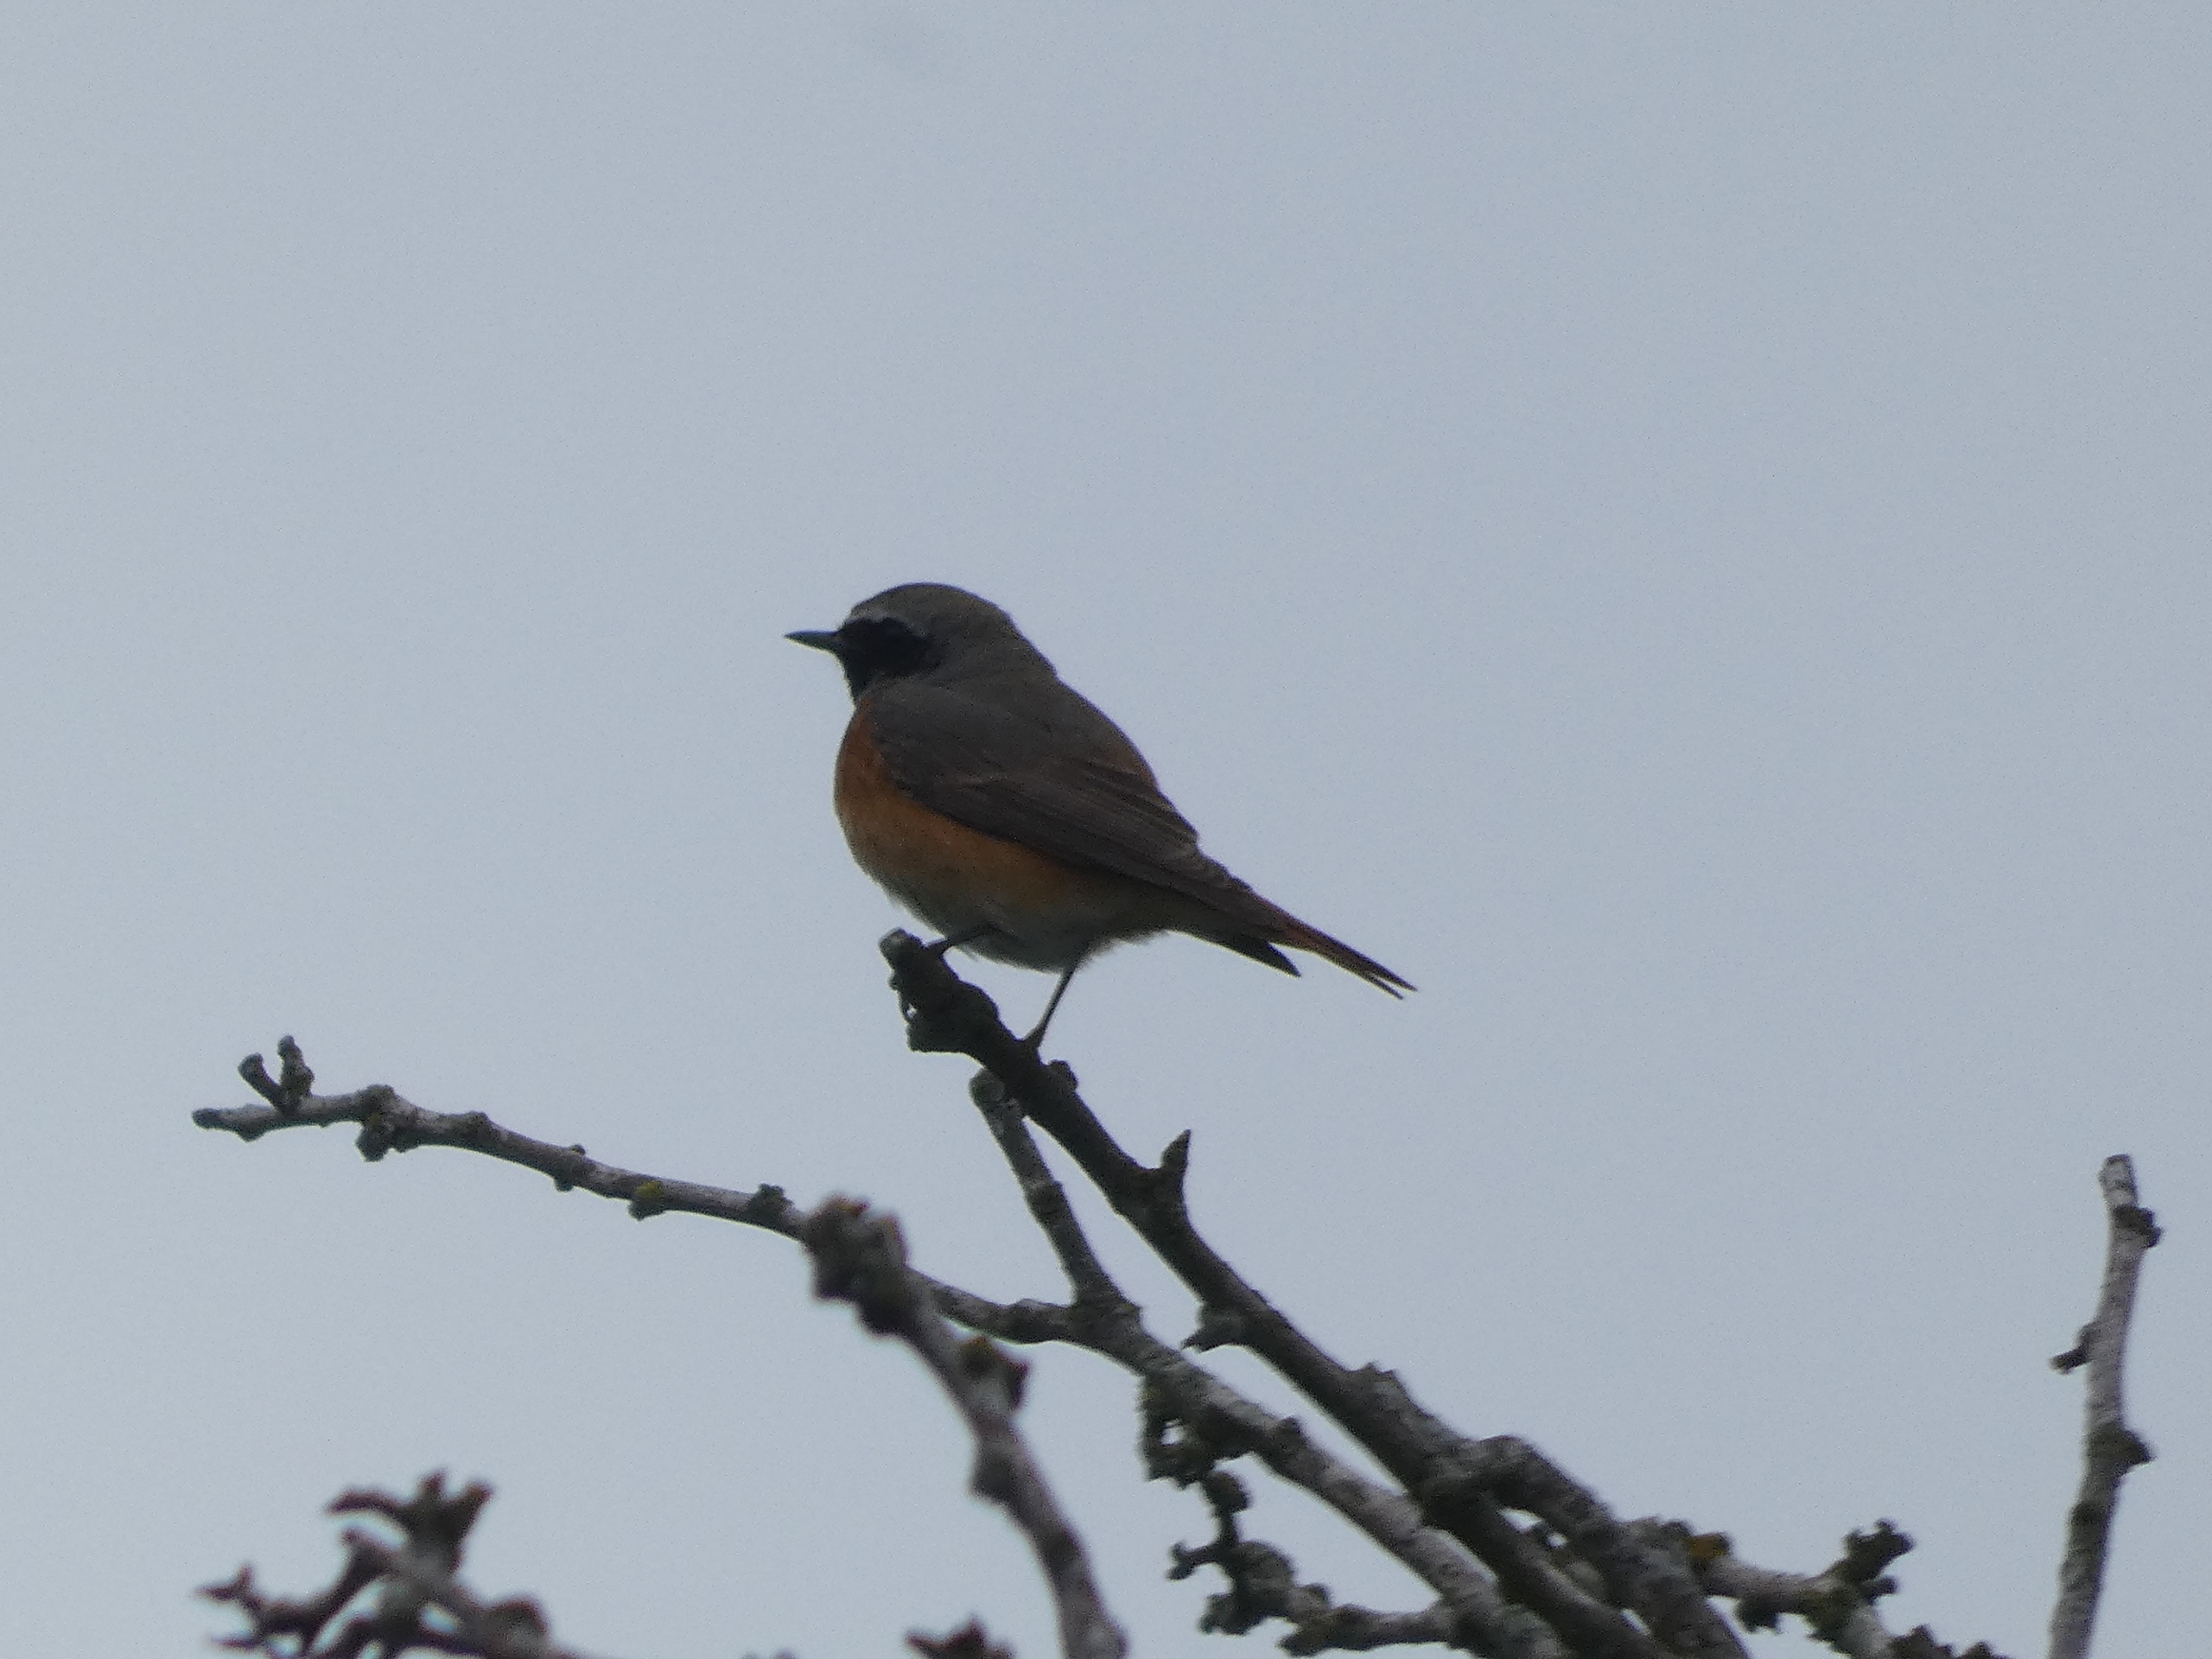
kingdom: Animalia
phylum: Chordata
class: Aves
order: Passeriformes
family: Muscicapidae
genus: Phoenicurus
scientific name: Phoenicurus phoenicurus
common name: Rødstjert
